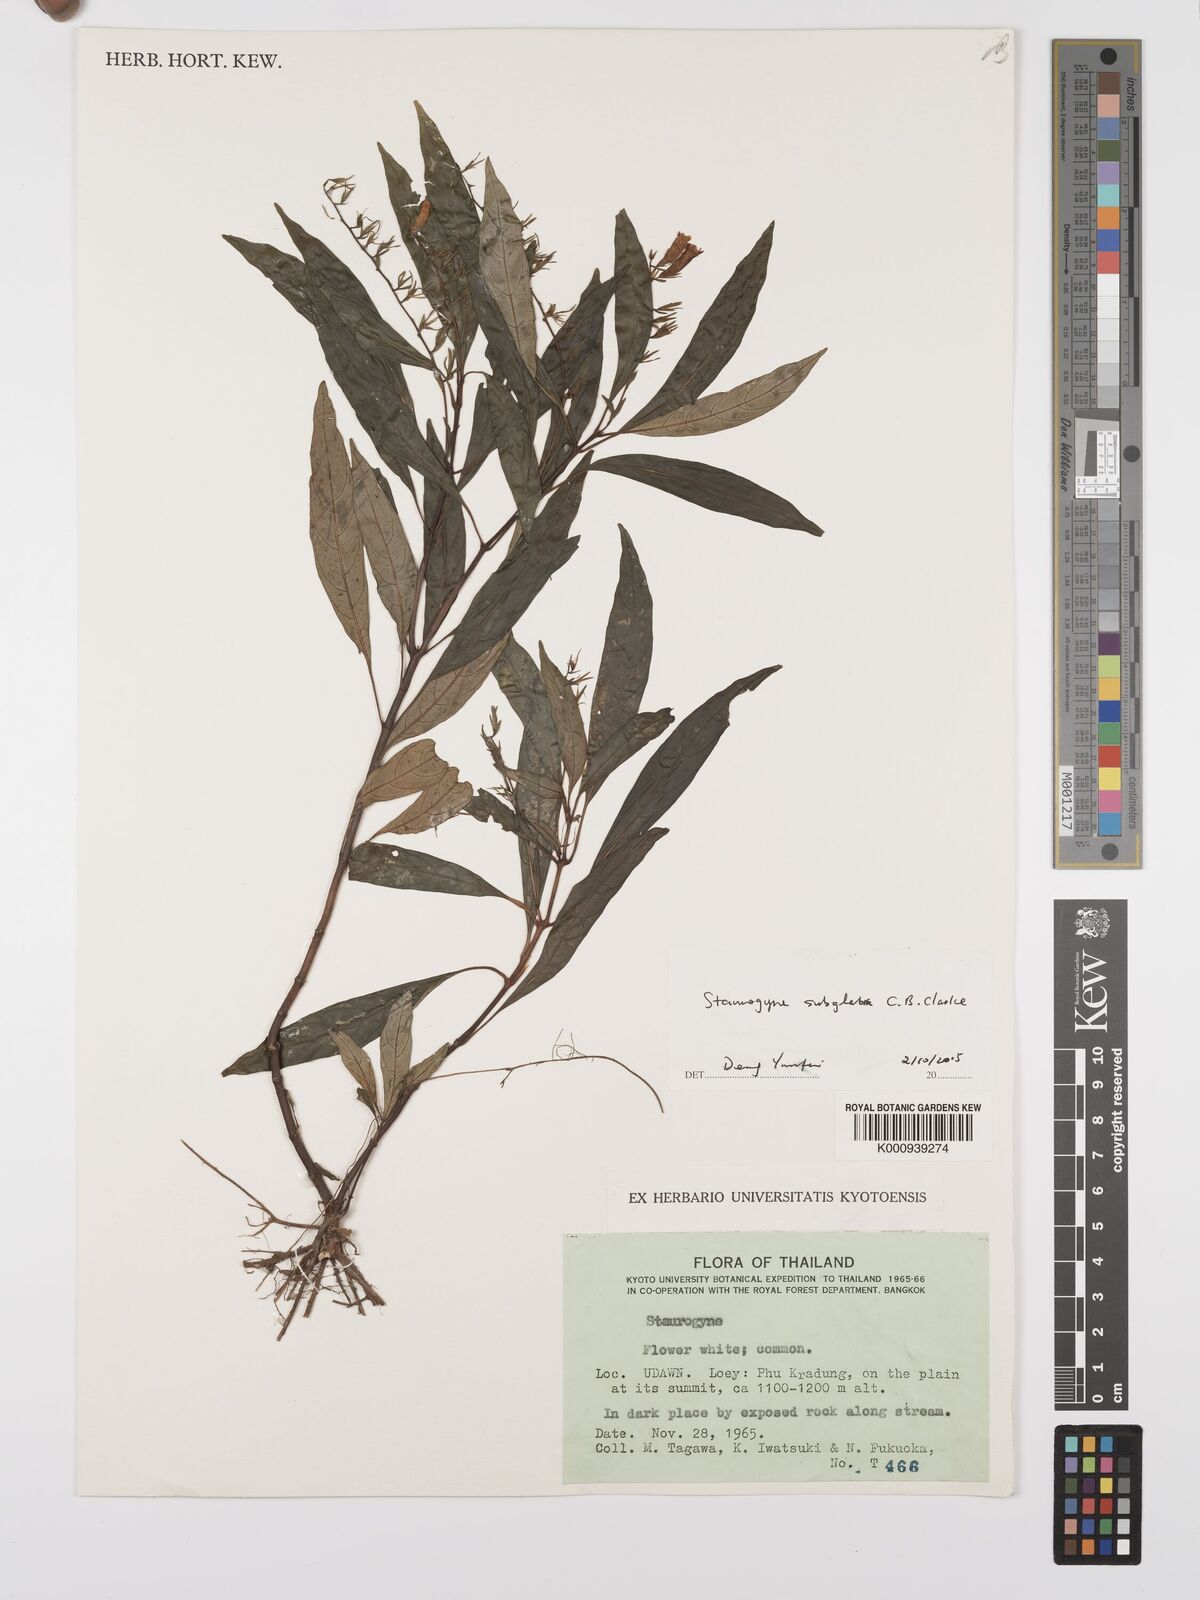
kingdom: Plantae
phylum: Tracheophyta
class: Magnoliopsida
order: Lamiales
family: Acanthaceae
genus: Staurogyne
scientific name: Staurogyne subglabra
